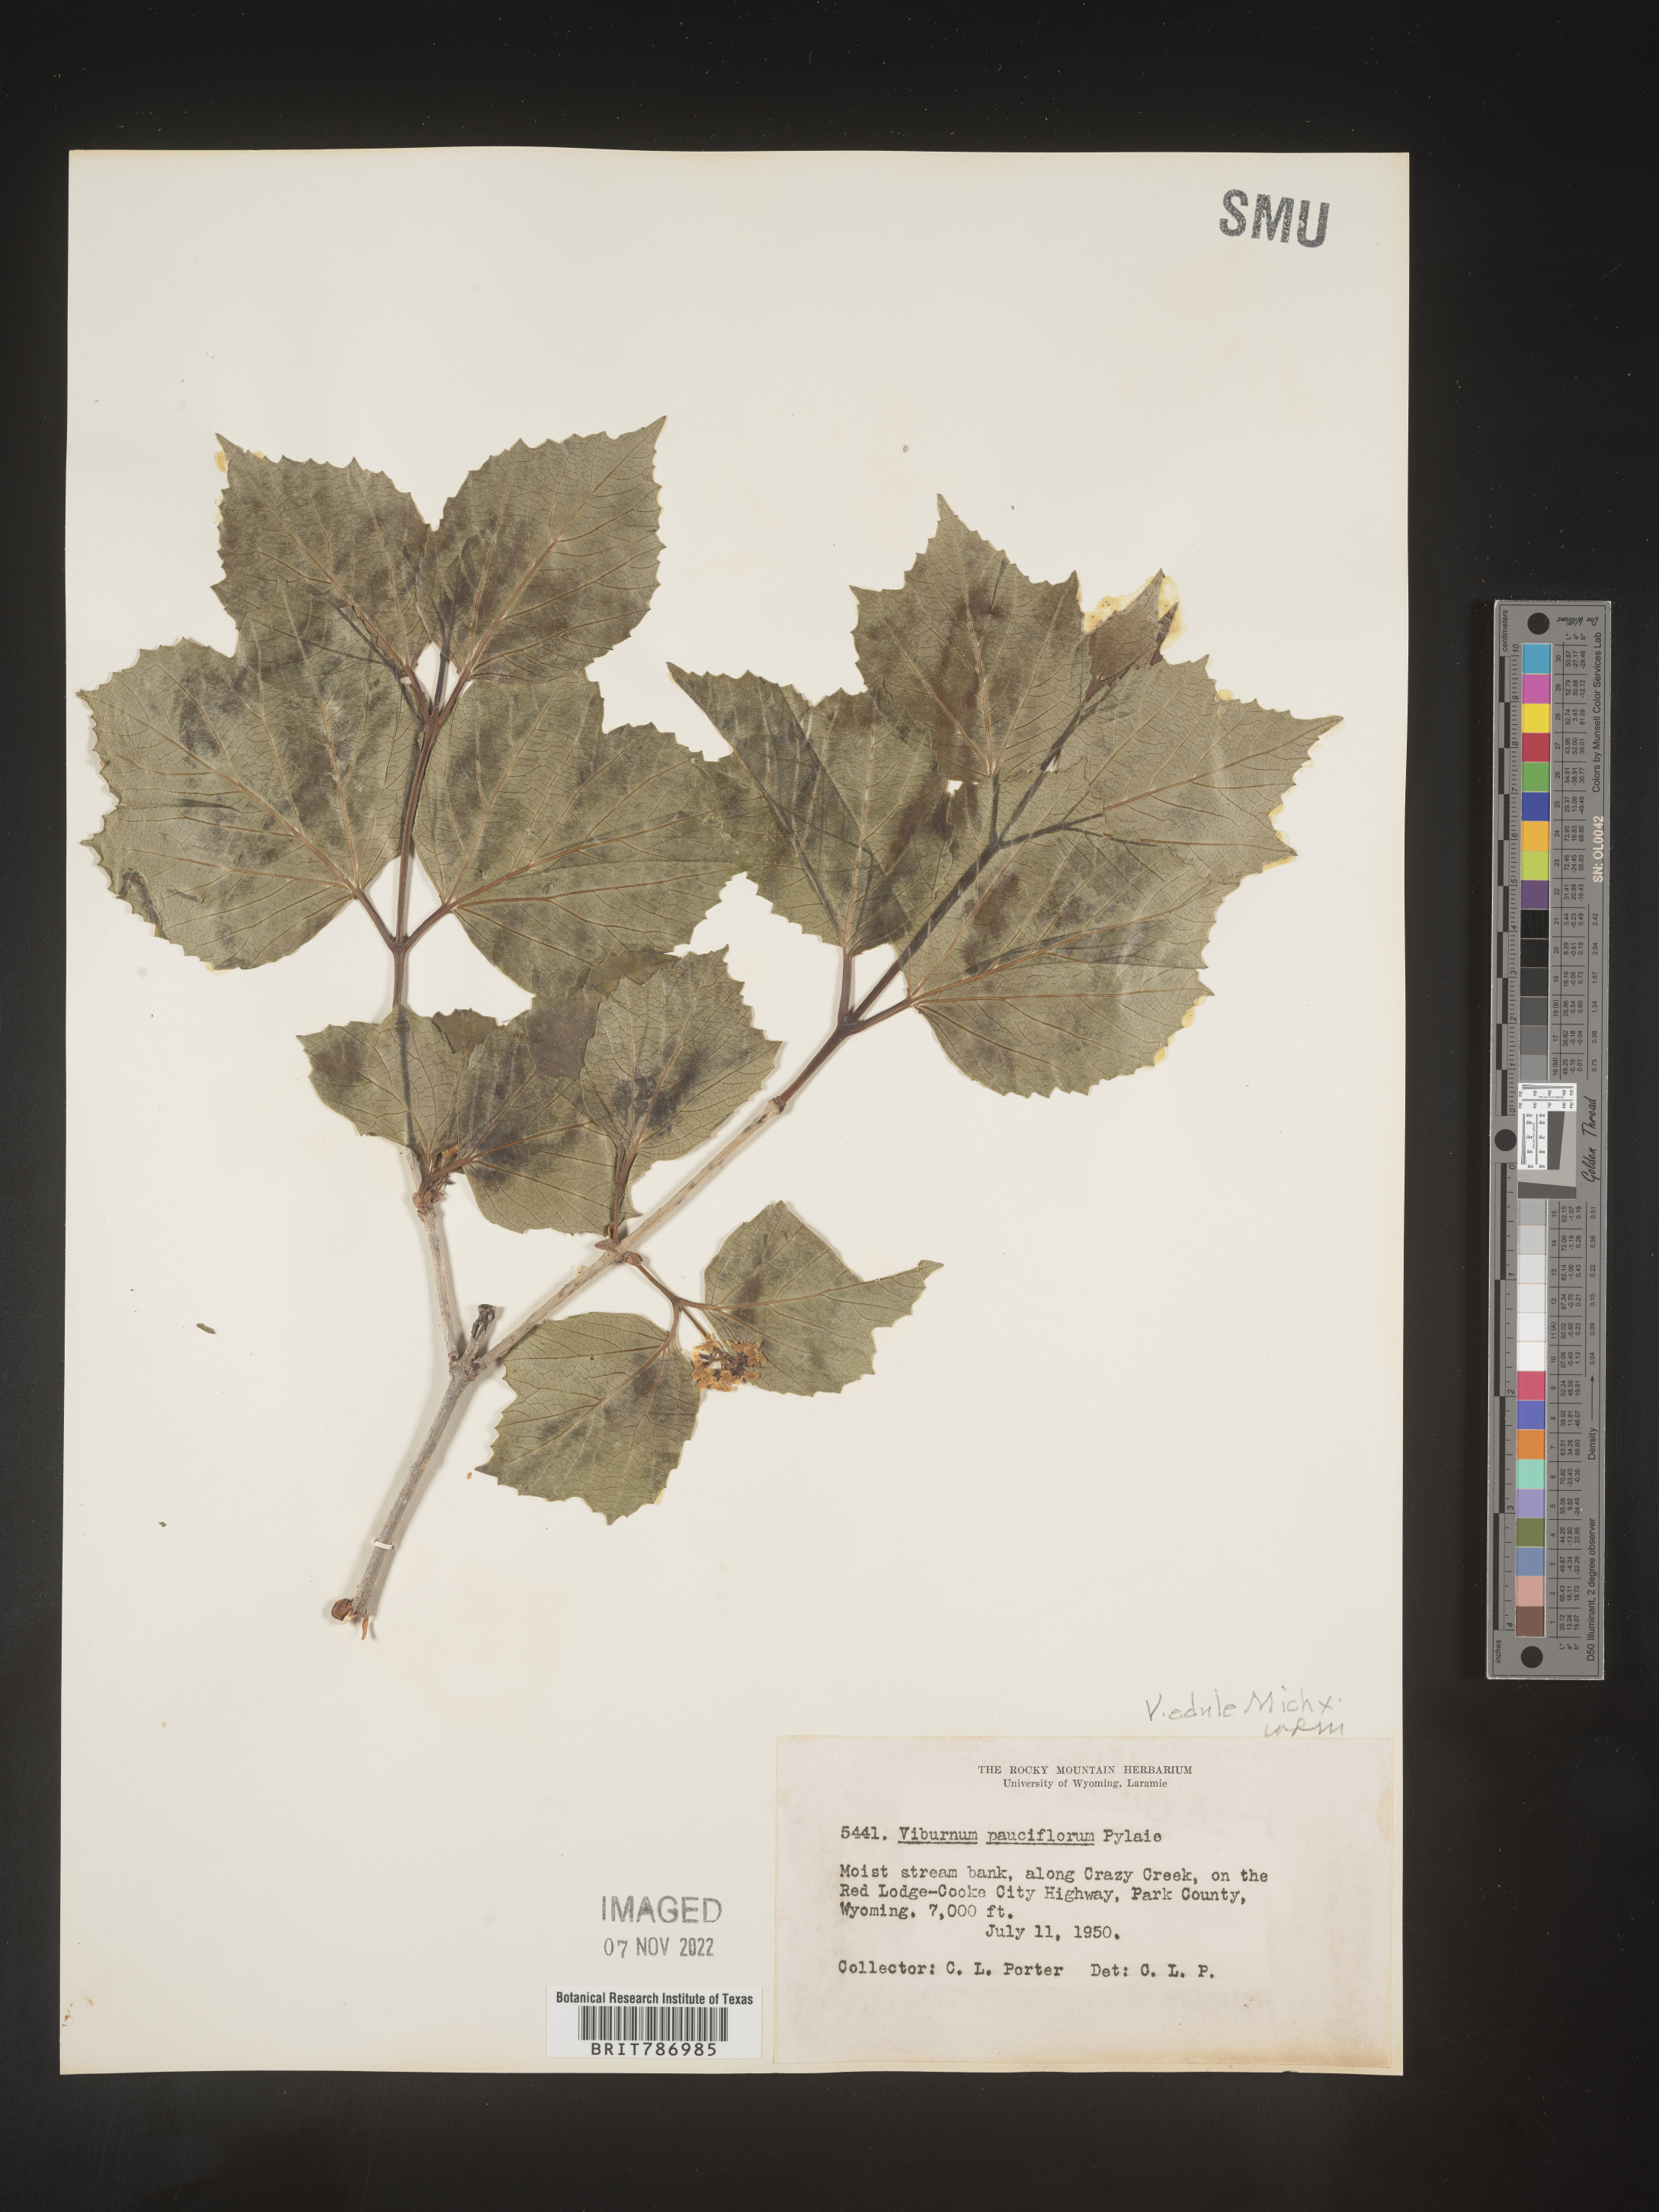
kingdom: Plantae
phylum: Tracheophyta
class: Magnoliopsida
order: Dipsacales
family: Viburnaceae
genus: Viburnum
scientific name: Viburnum edule
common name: Mooseberry
